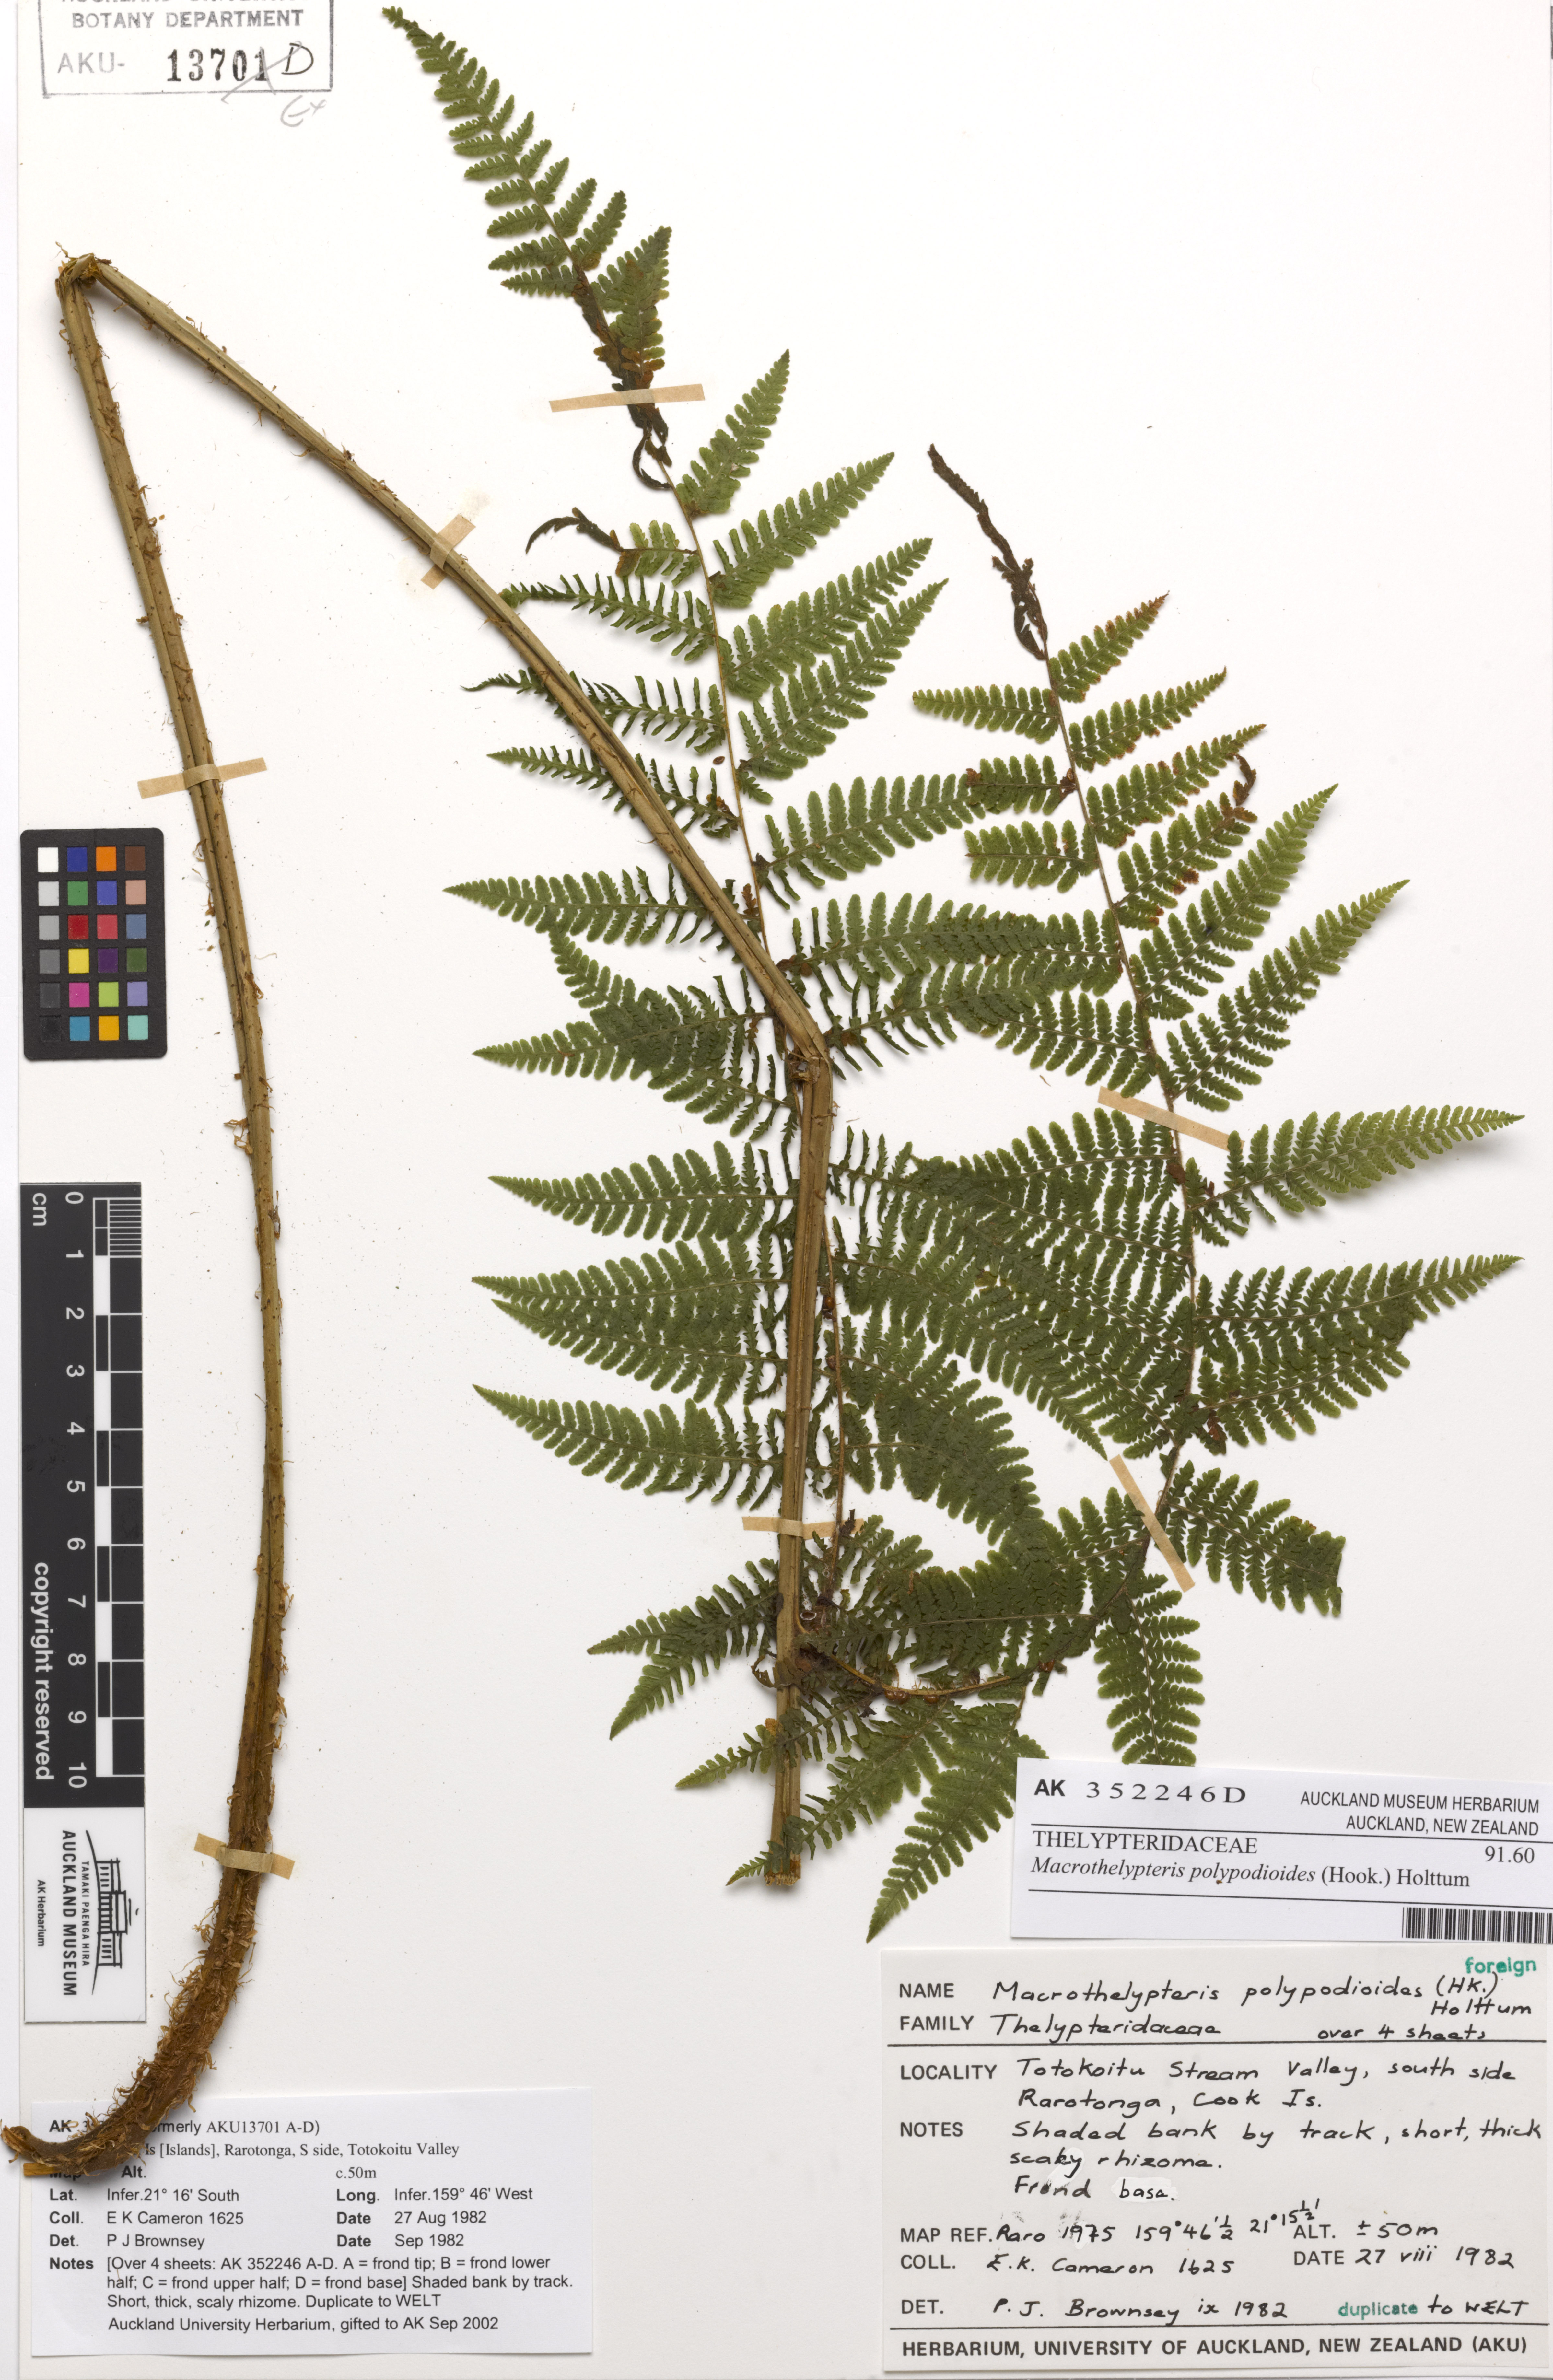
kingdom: Plantae
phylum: Tracheophyta
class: Polypodiopsida
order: Polypodiales
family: Thelypteridaceae
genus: Macrothelypteris
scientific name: Macrothelypteris polypodioides
